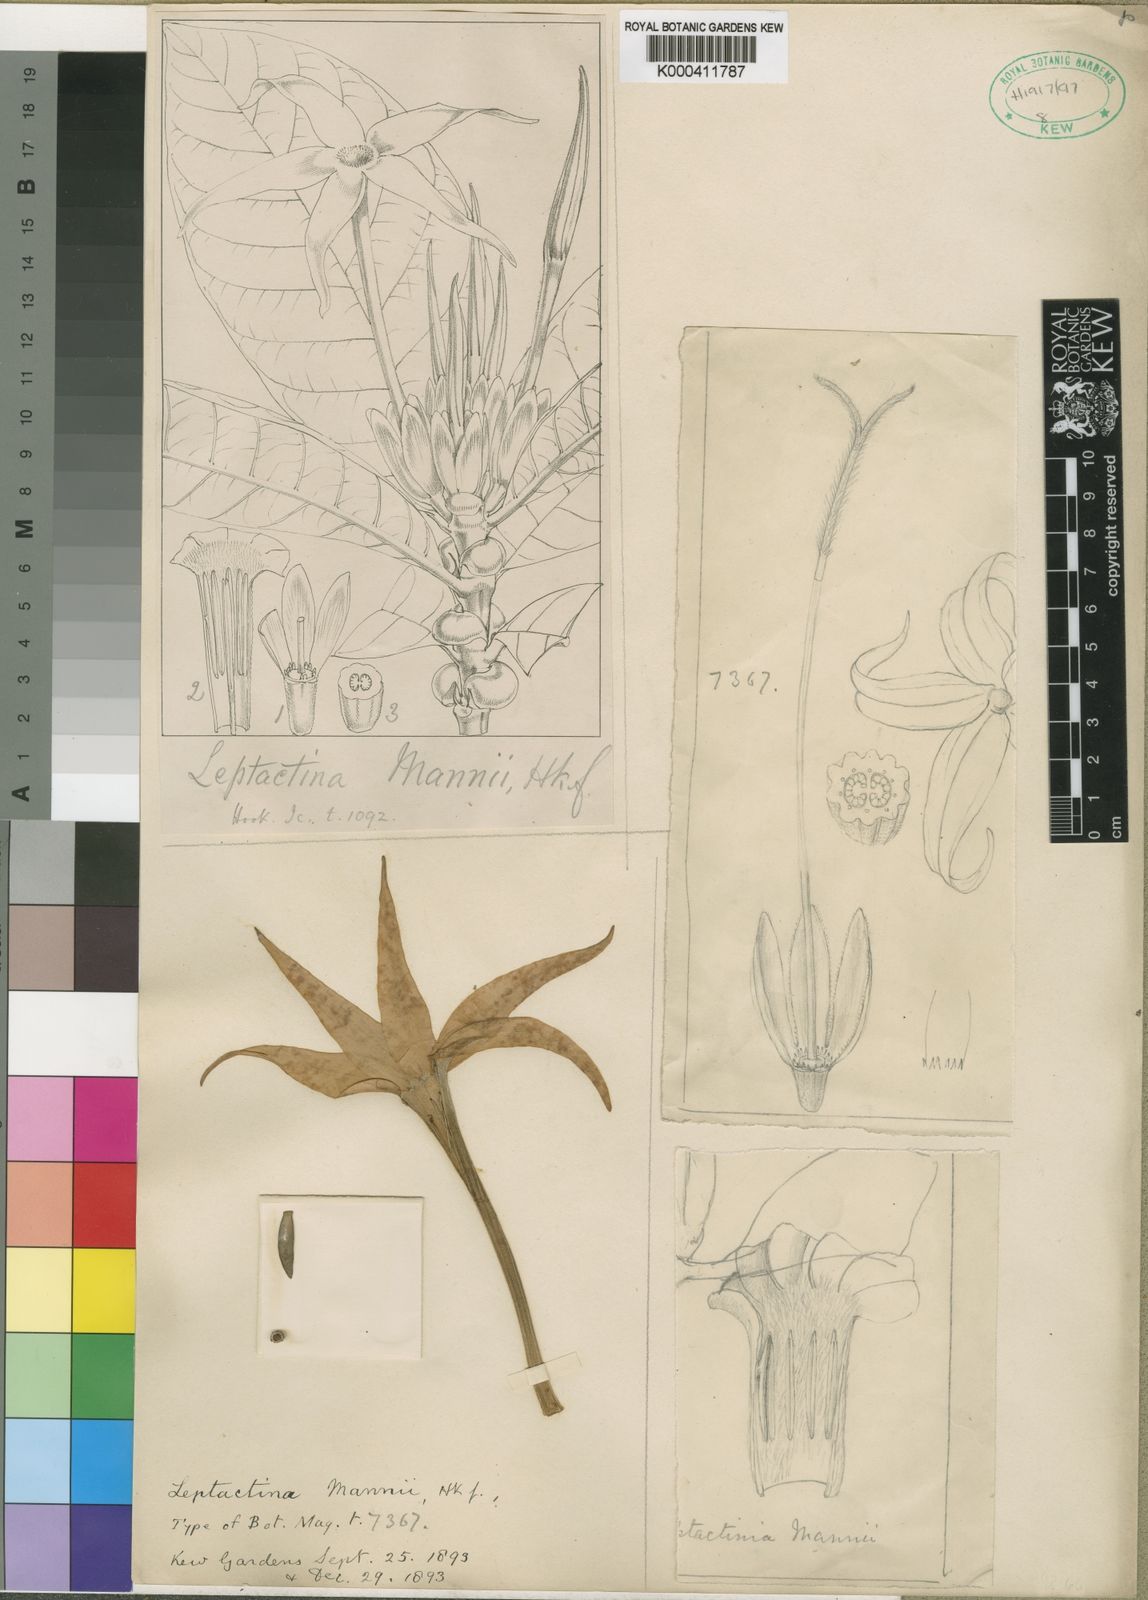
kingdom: Plantae
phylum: Tracheophyta
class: Magnoliopsida
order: Gentianales
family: Rubiaceae
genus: Leptactina
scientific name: Leptactina mannii
